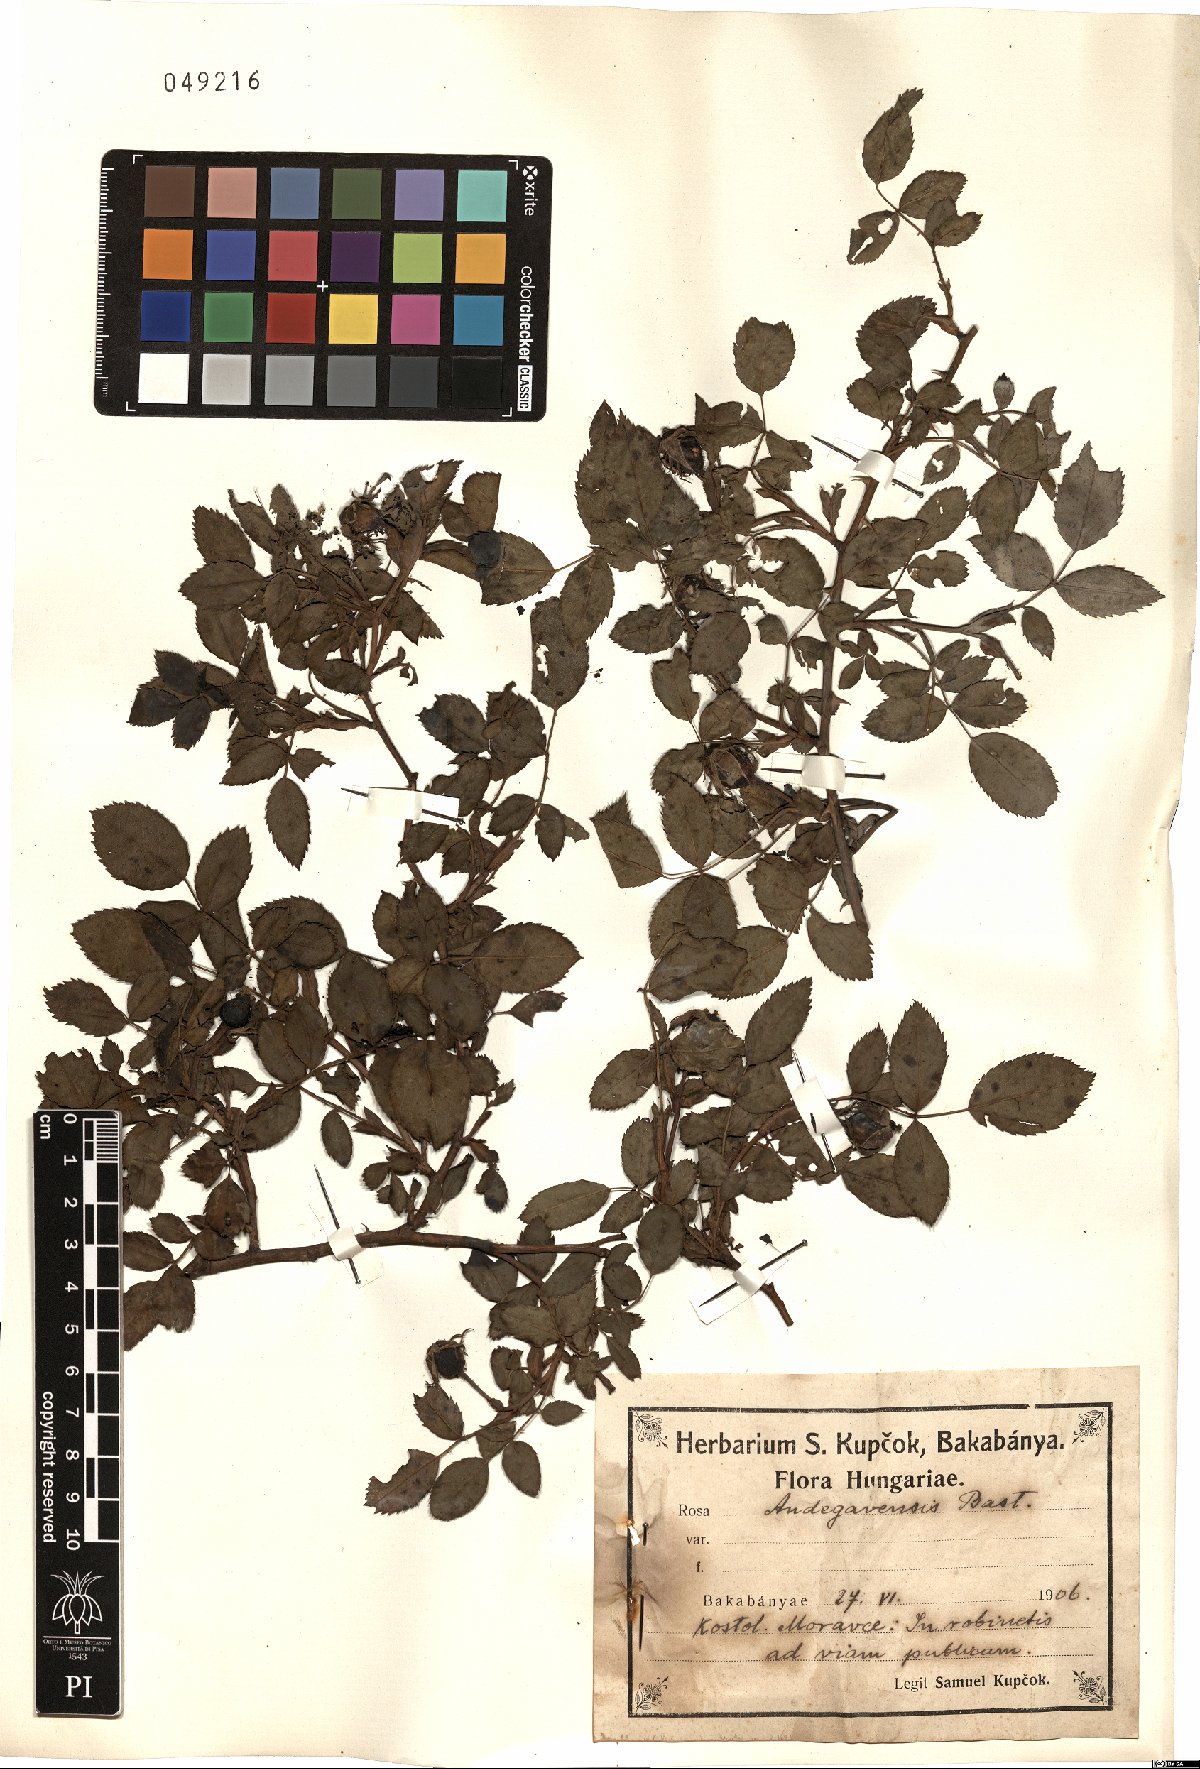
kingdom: Plantae
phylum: Tracheophyta
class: Magnoliopsida
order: Rosales
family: Rosaceae
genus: Rosa
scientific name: Rosa canina
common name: Dog rose
